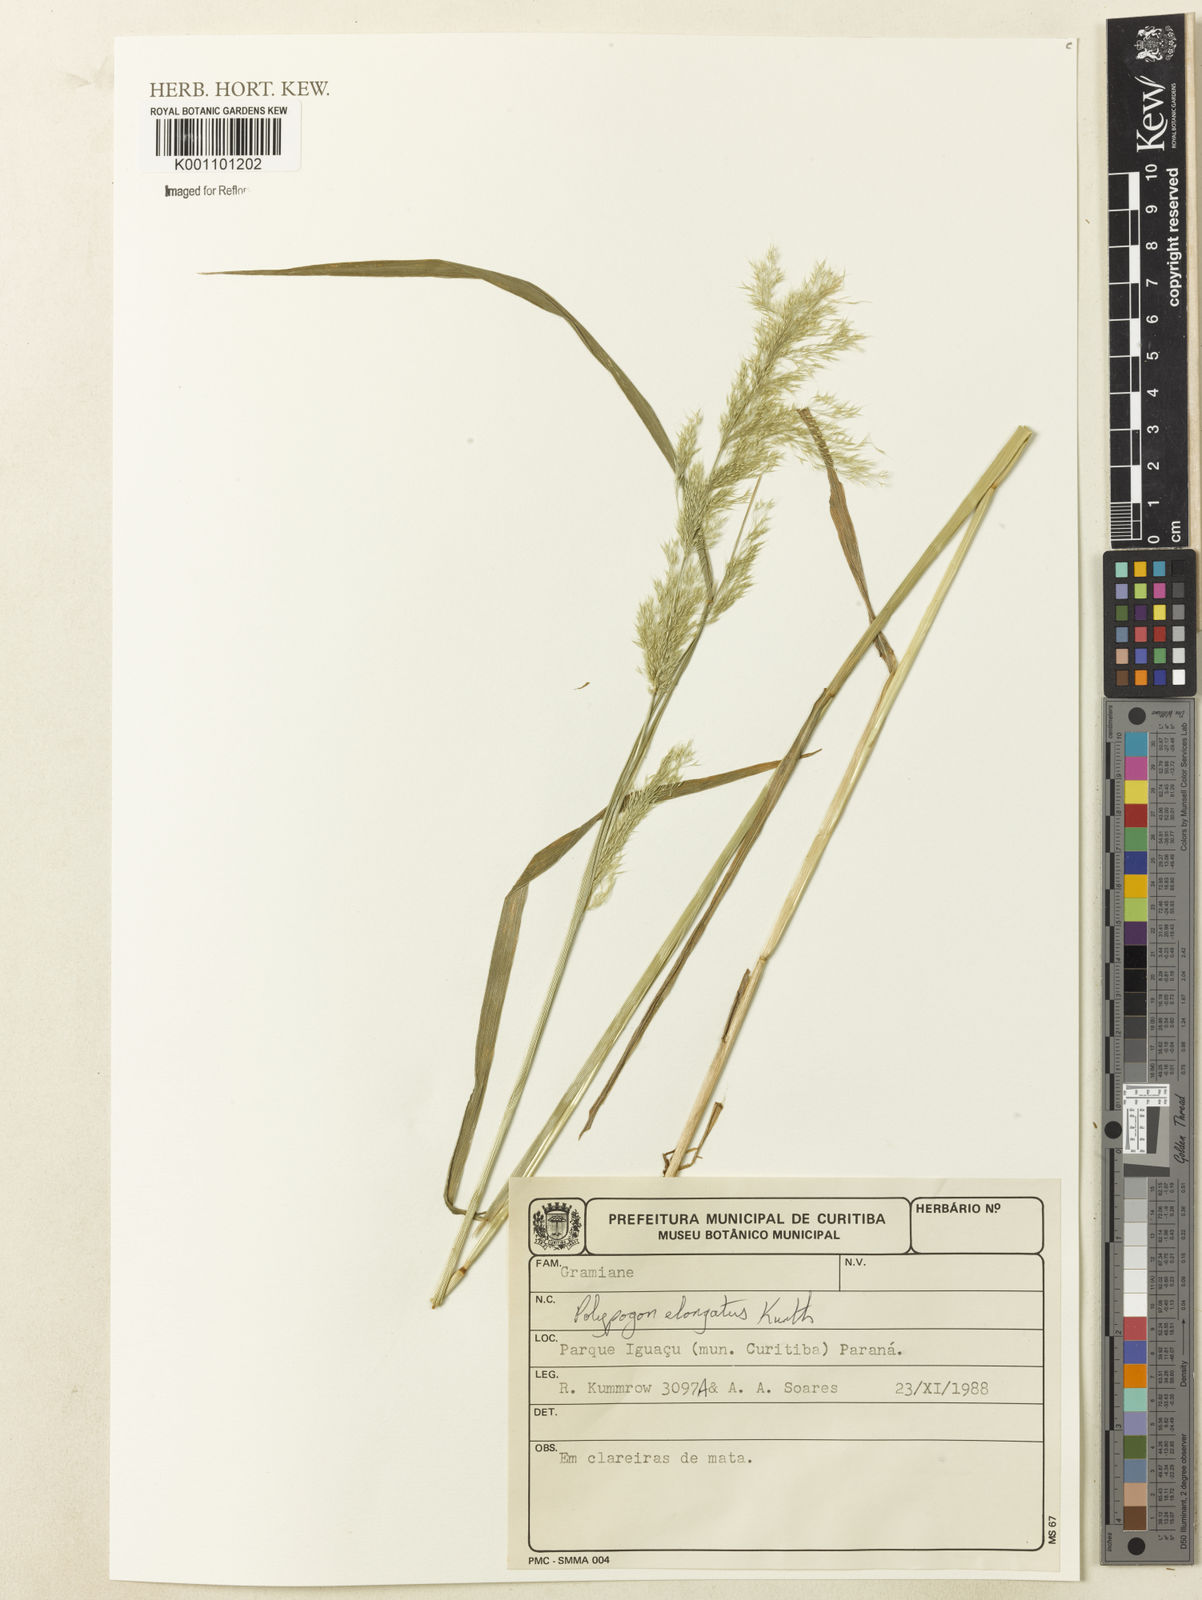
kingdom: Plantae
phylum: Tracheophyta
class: Liliopsida
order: Poales
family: Poaceae
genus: Polypogon
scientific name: Polypogon elongatus
